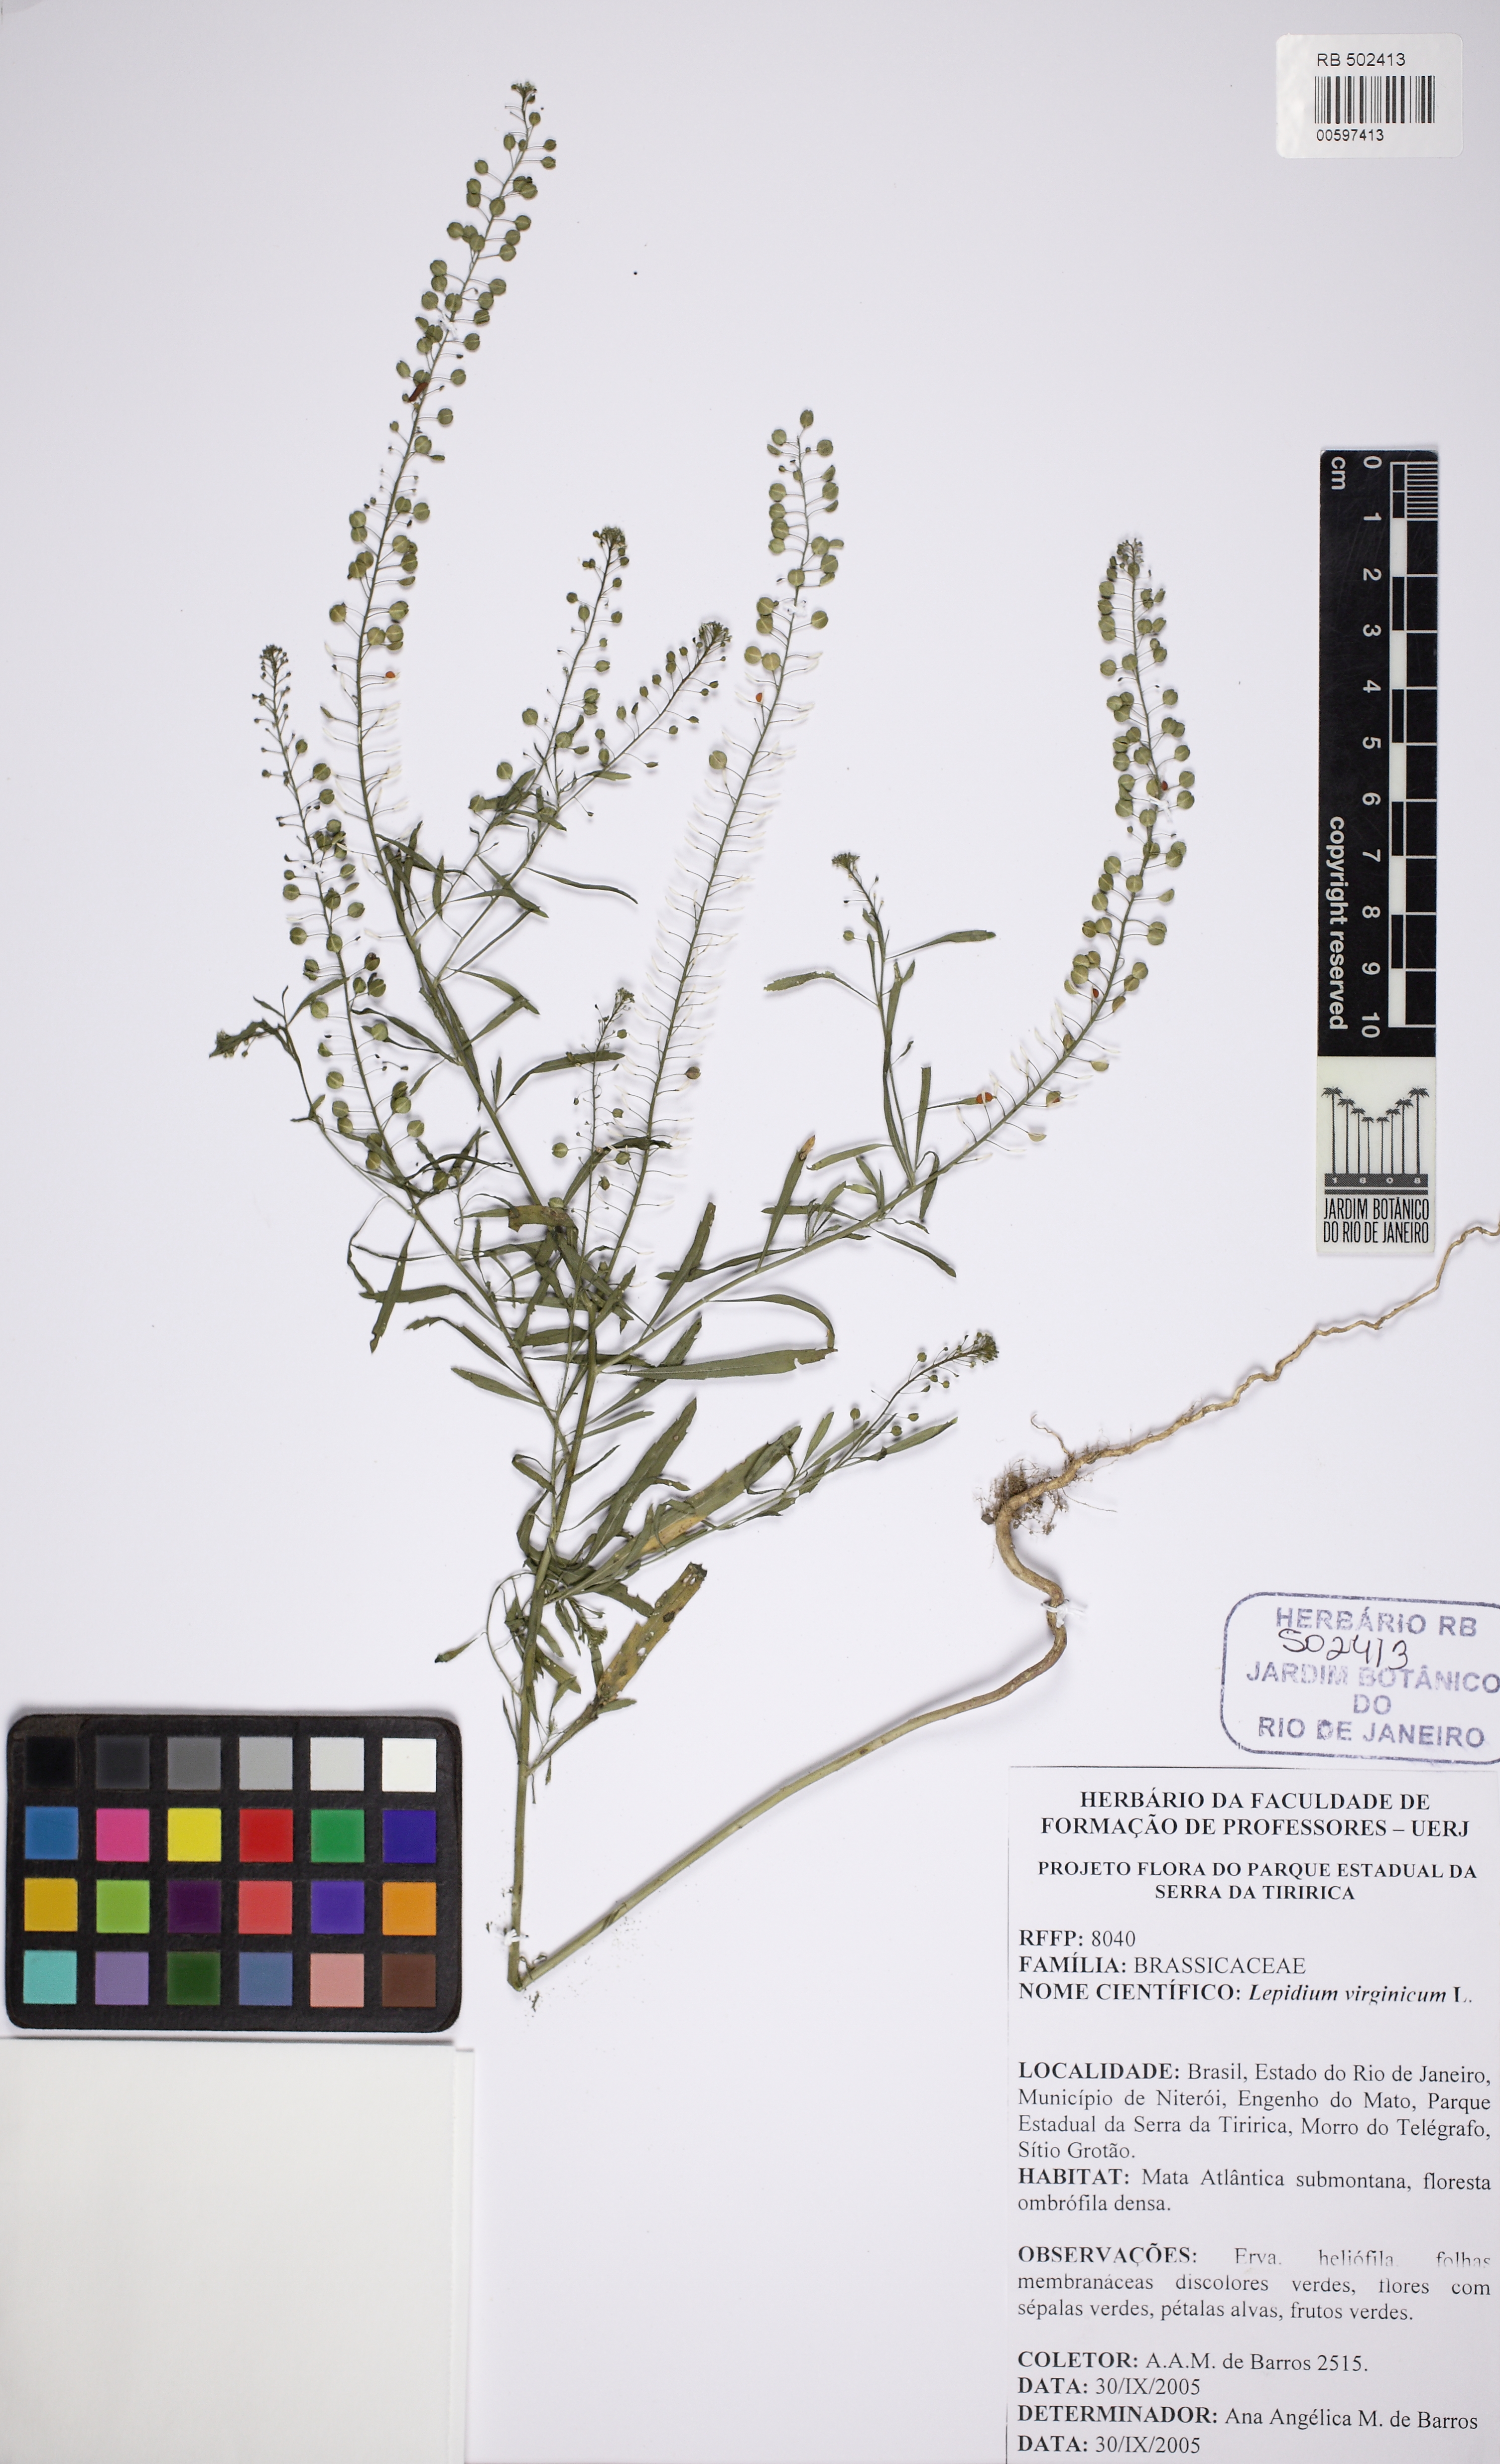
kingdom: Plantae
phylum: Tracheophyta
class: Magnoliopsida
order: Brassicales
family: Brassicaceae
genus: Lepidium
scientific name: Lepidium virginicum
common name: Least pepperwort
